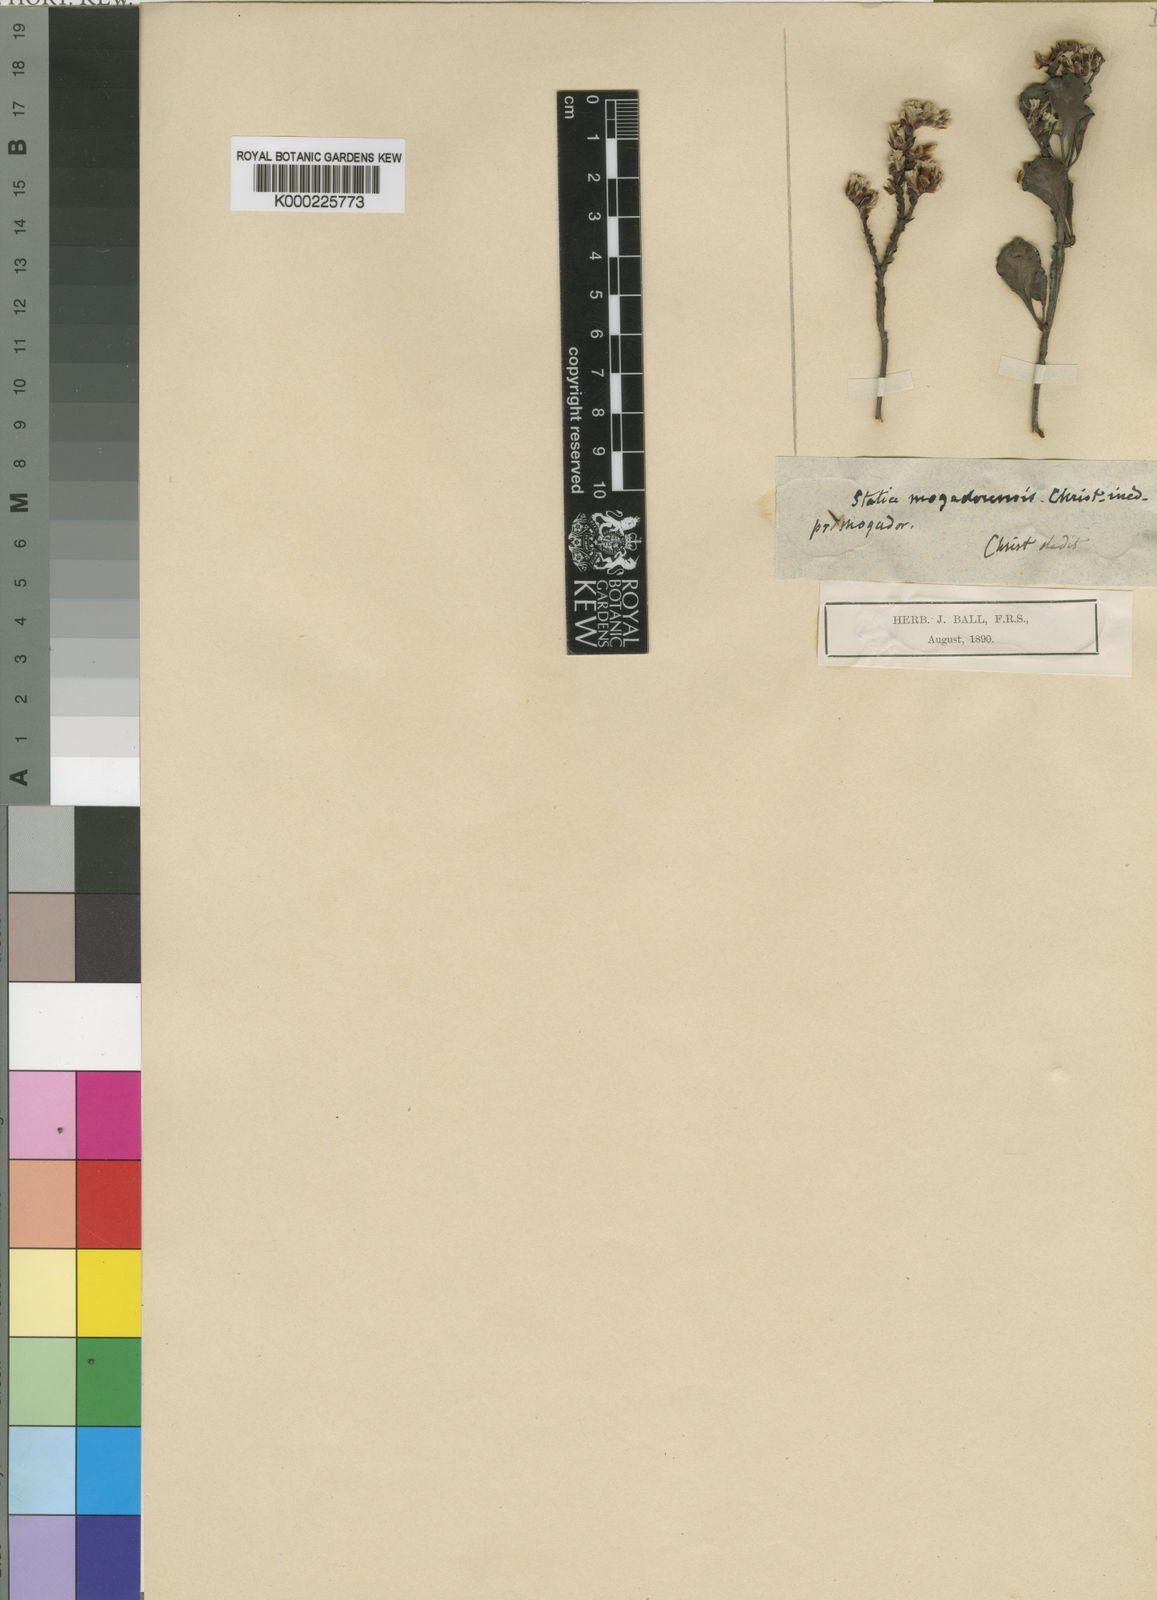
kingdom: Plantae
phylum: Tracheophyta
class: Magnoliopsida
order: Caryophyllales
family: Plumbaginaceae
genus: Limonium
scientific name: Limonium
